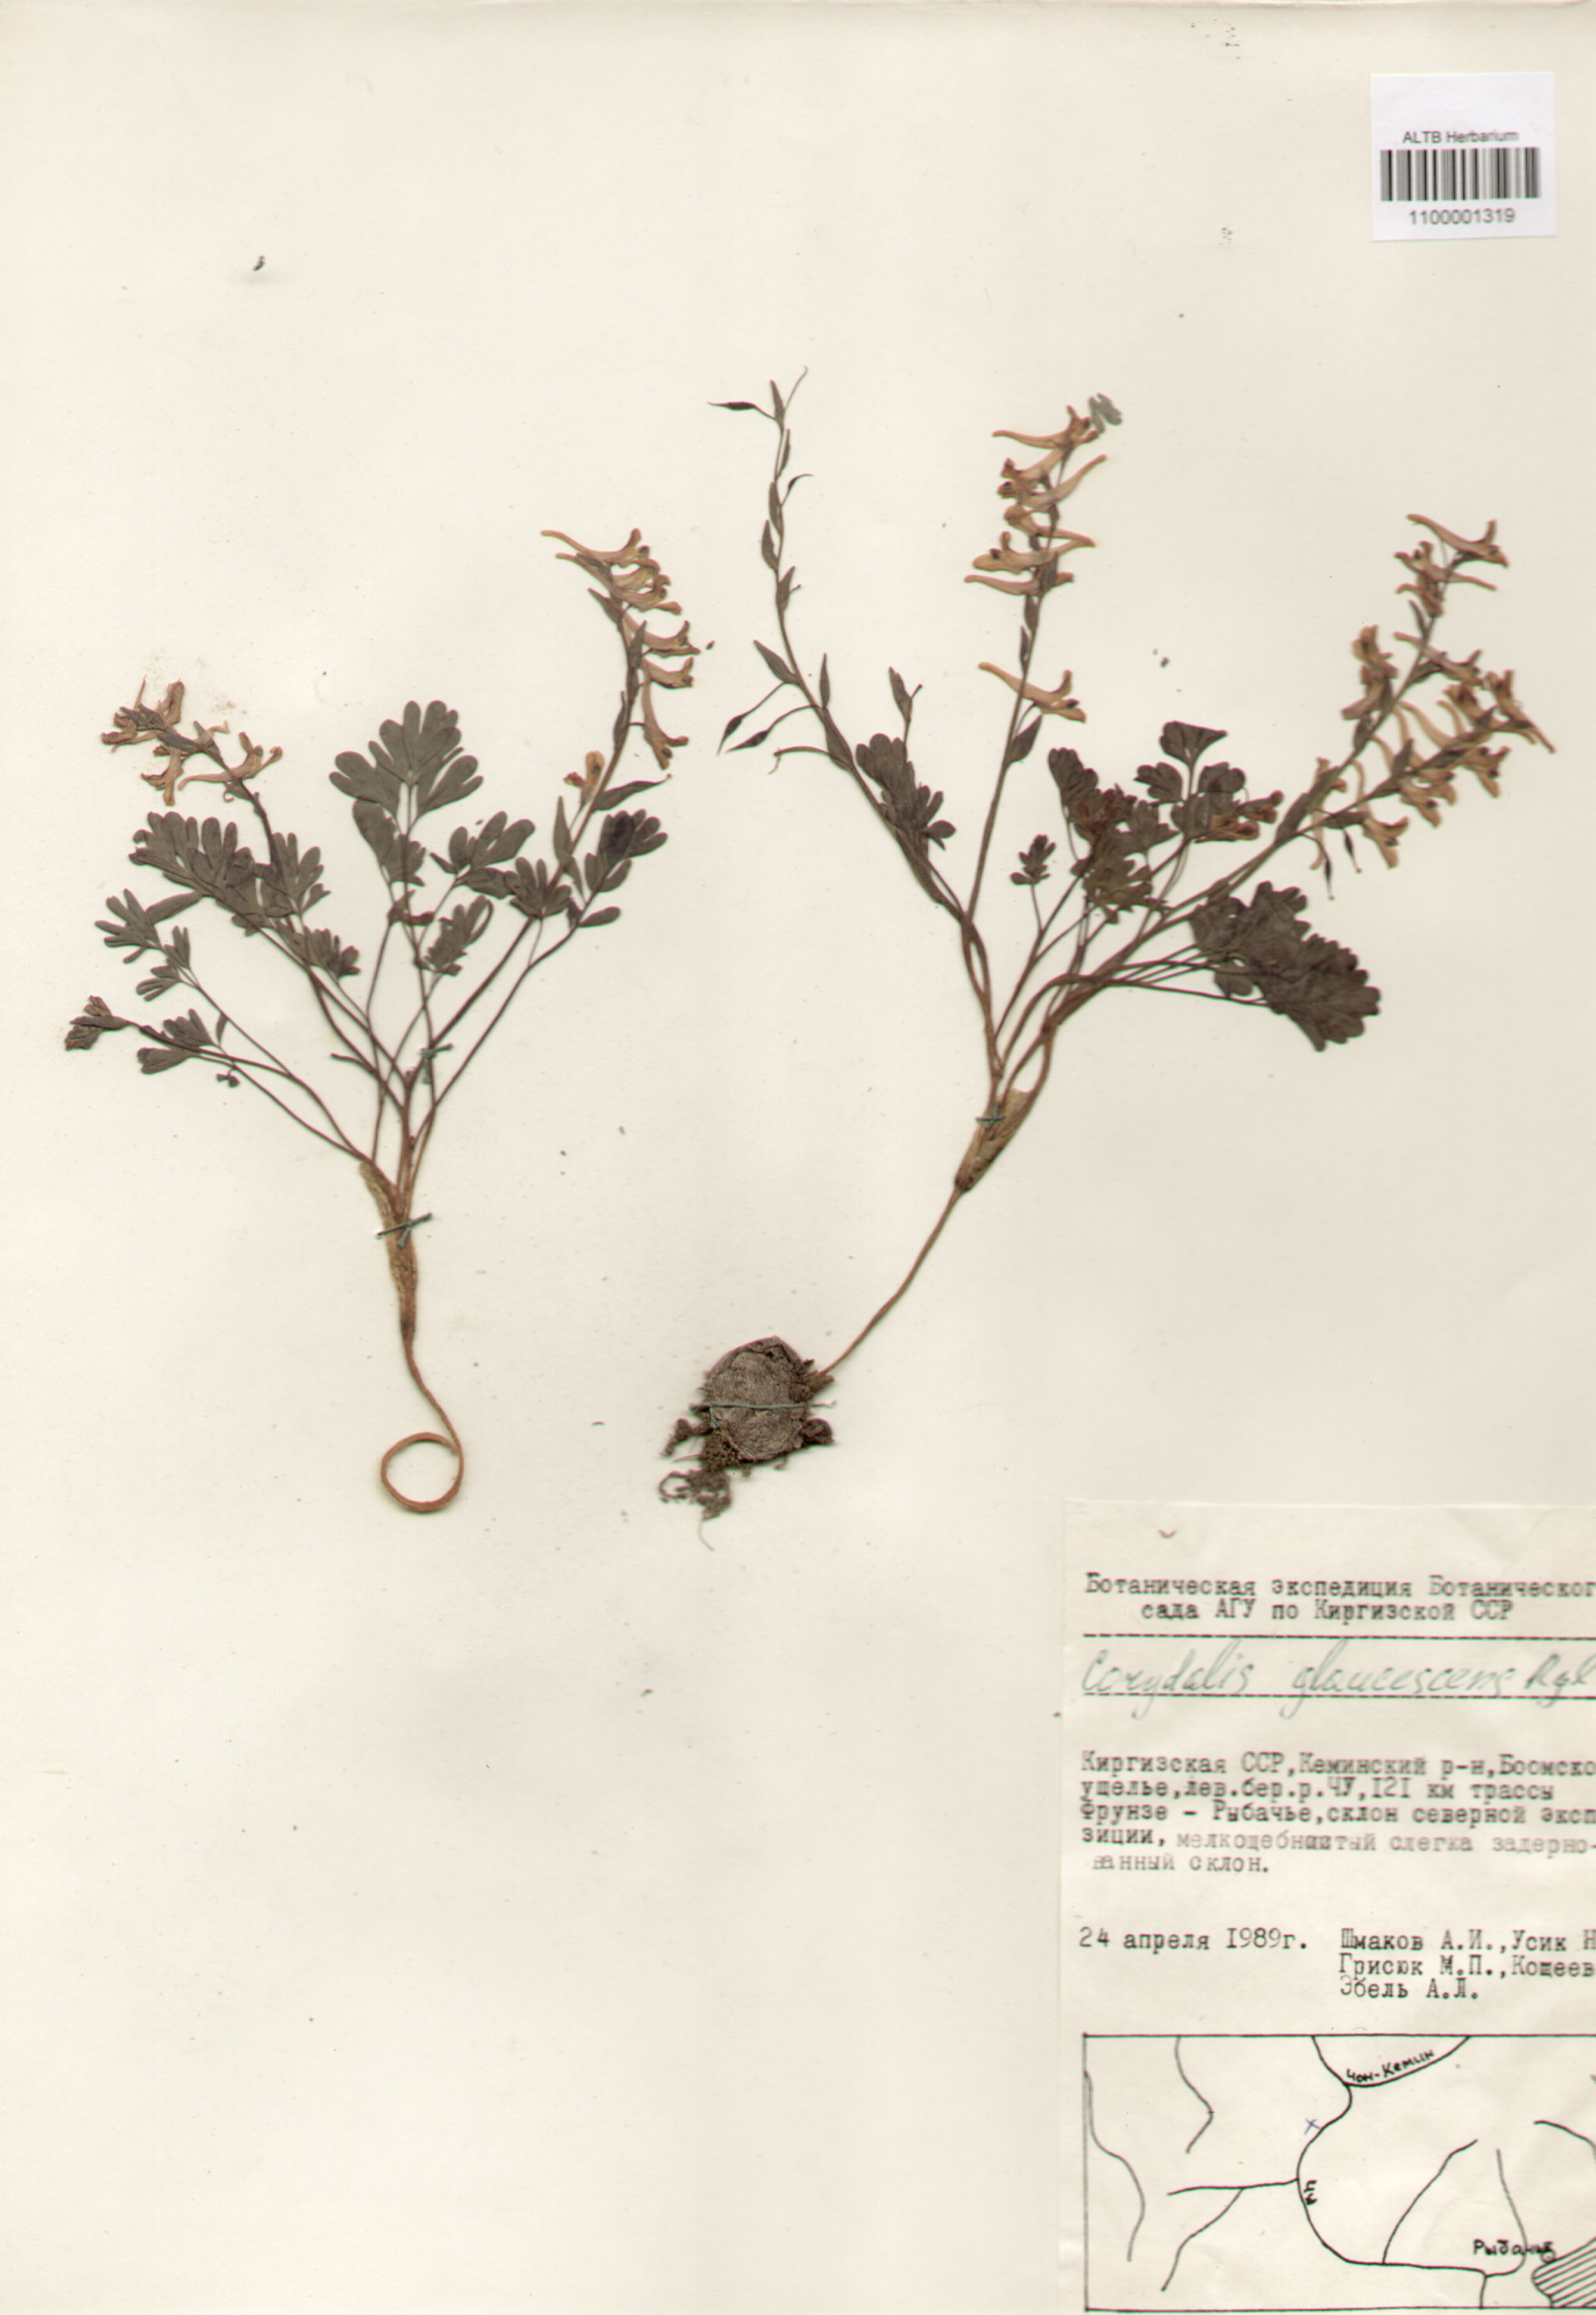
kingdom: Plantae
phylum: Tracheophyta
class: Magnoliopsida
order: Ranunculales
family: Papaveraceae
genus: Corydalis
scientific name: Corydalis glaucescens
